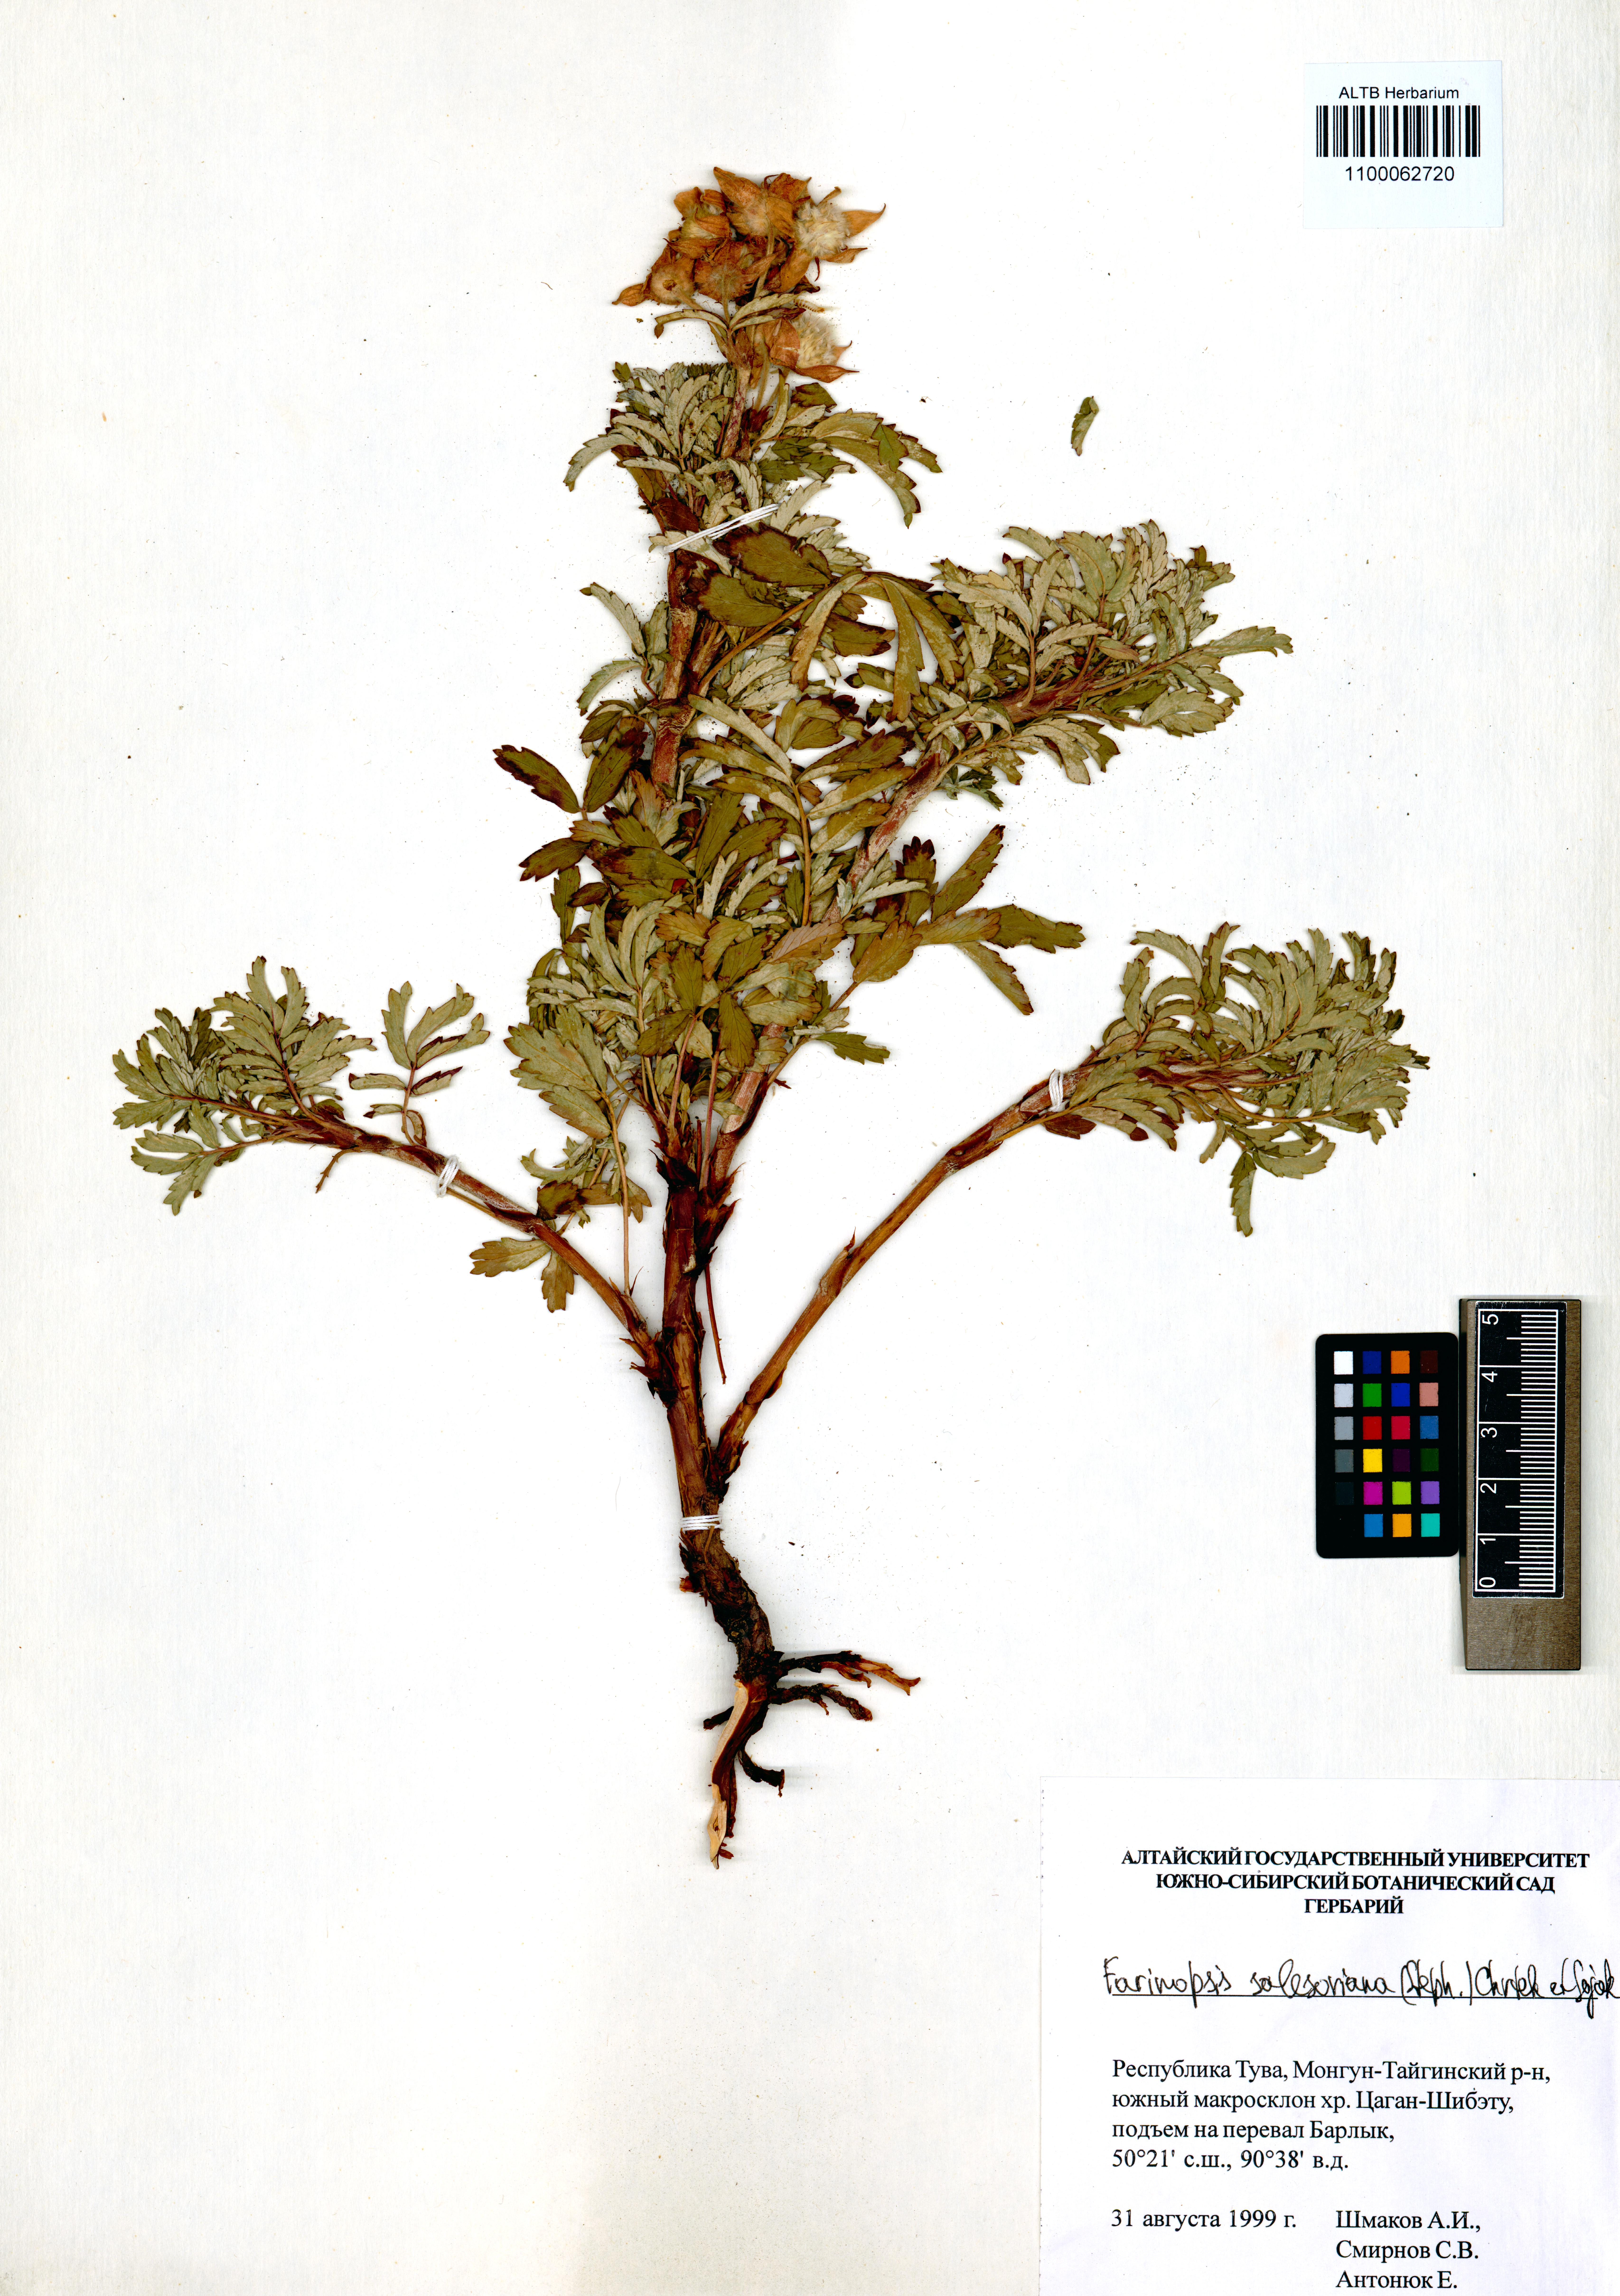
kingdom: Plantae
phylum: Tracheophyta
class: Magnoliopsida
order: Rosales
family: Rosaceae
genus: Farinopsis
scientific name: Farinopsis salesoviana
